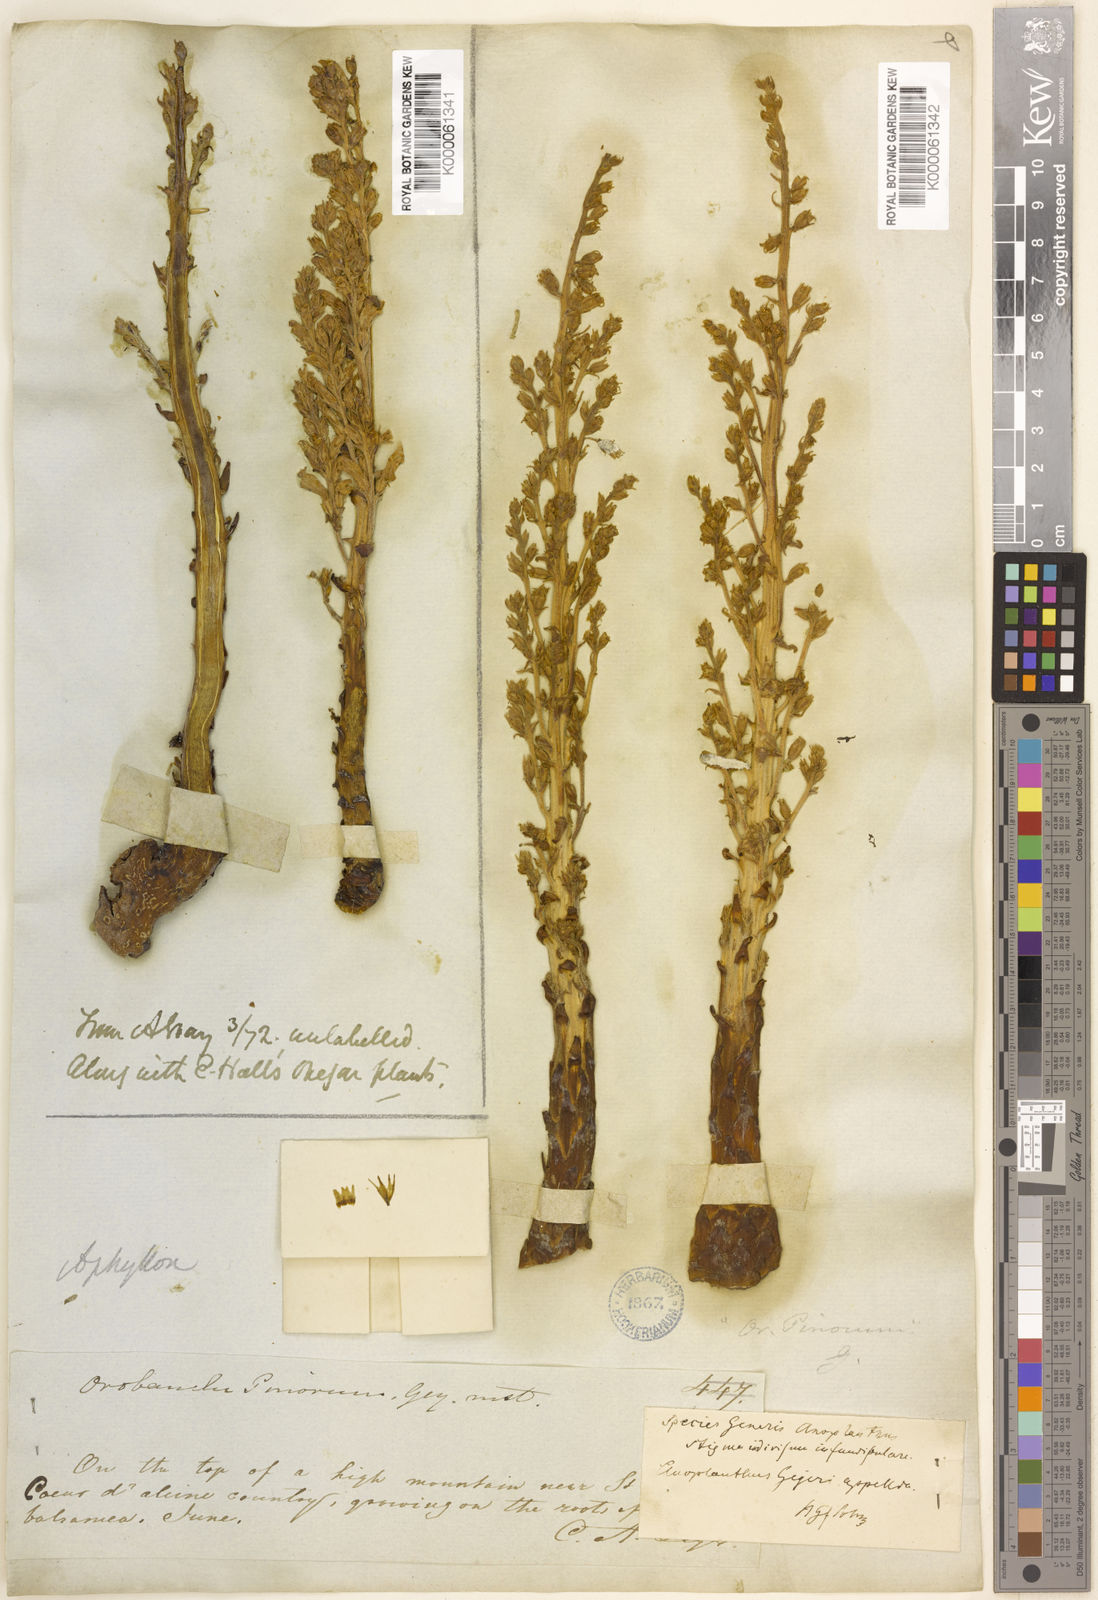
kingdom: Plantae
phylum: Tracheophyta
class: Magnoliopsida
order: Lamiales
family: Orobanchaceae
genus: Aphyllon
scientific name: Aphyllon tuberosum
